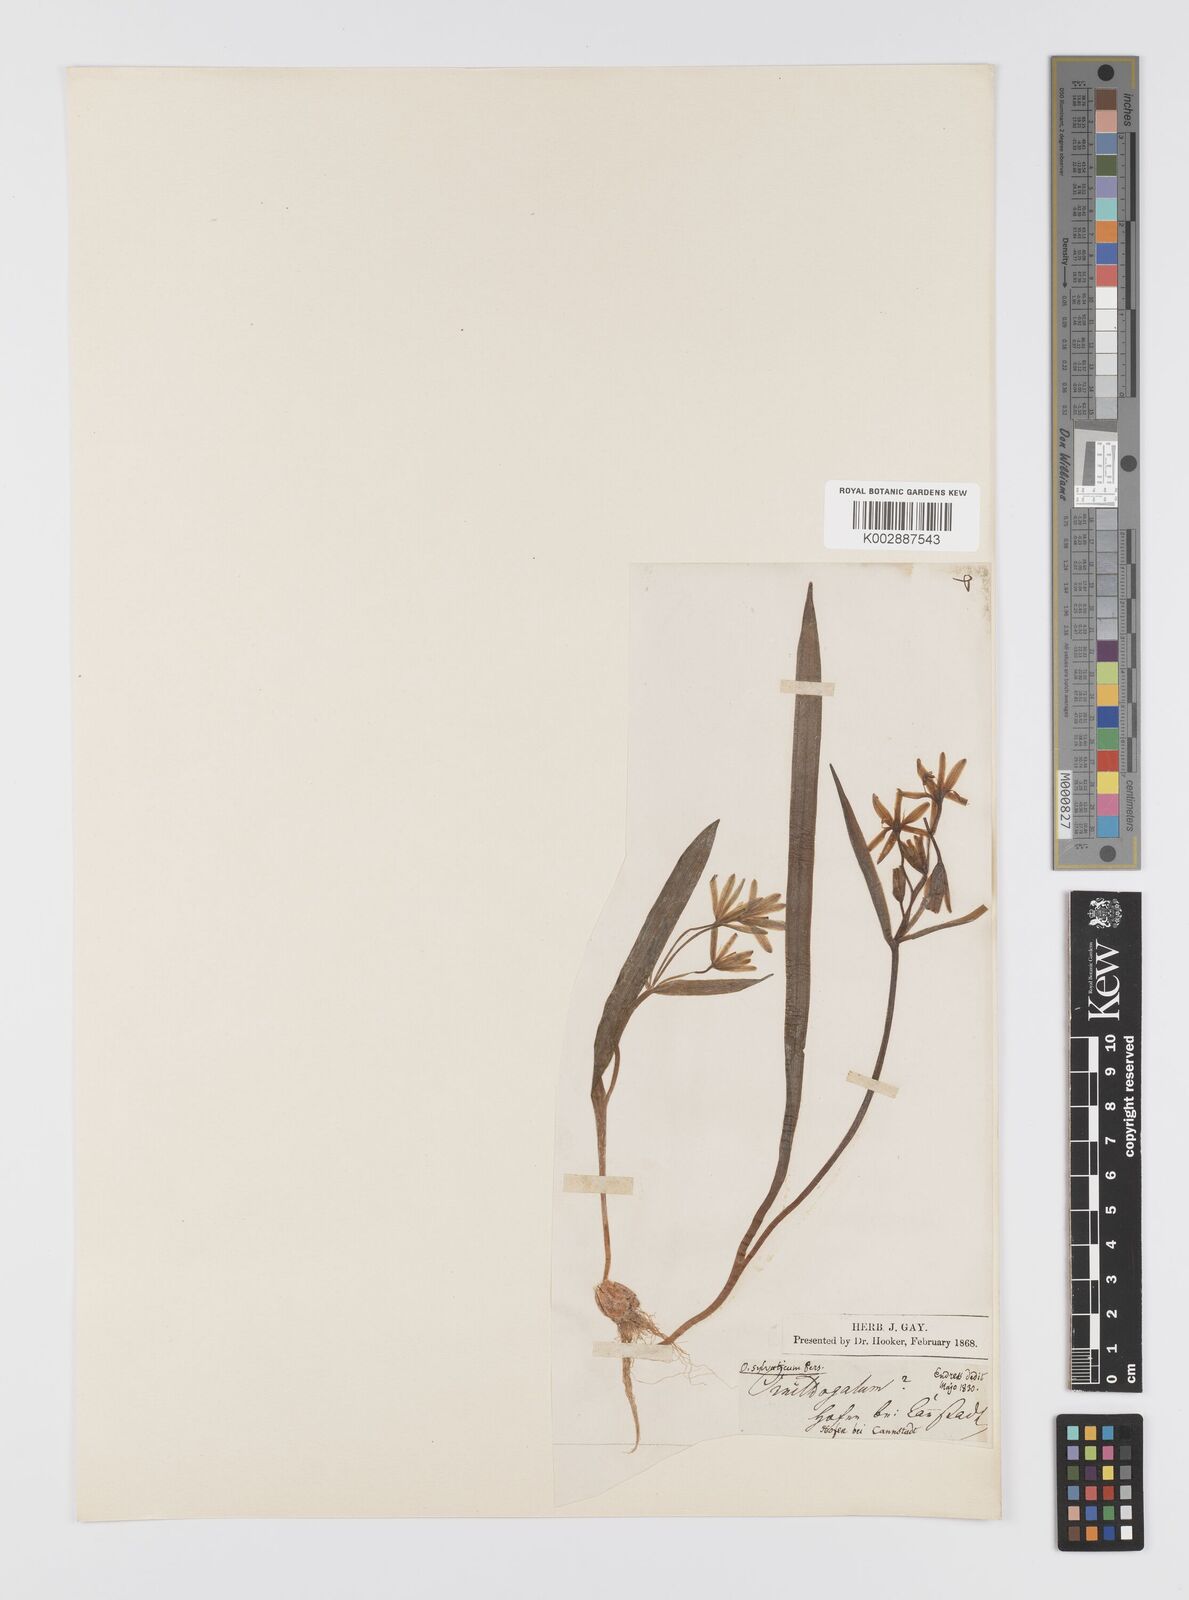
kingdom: Plantae
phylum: Tracheophyta
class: Liliopsida
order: Liliales
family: Liliaceae
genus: Gagea
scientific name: Gagea lutea
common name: Yellow star-of-bethlehem
